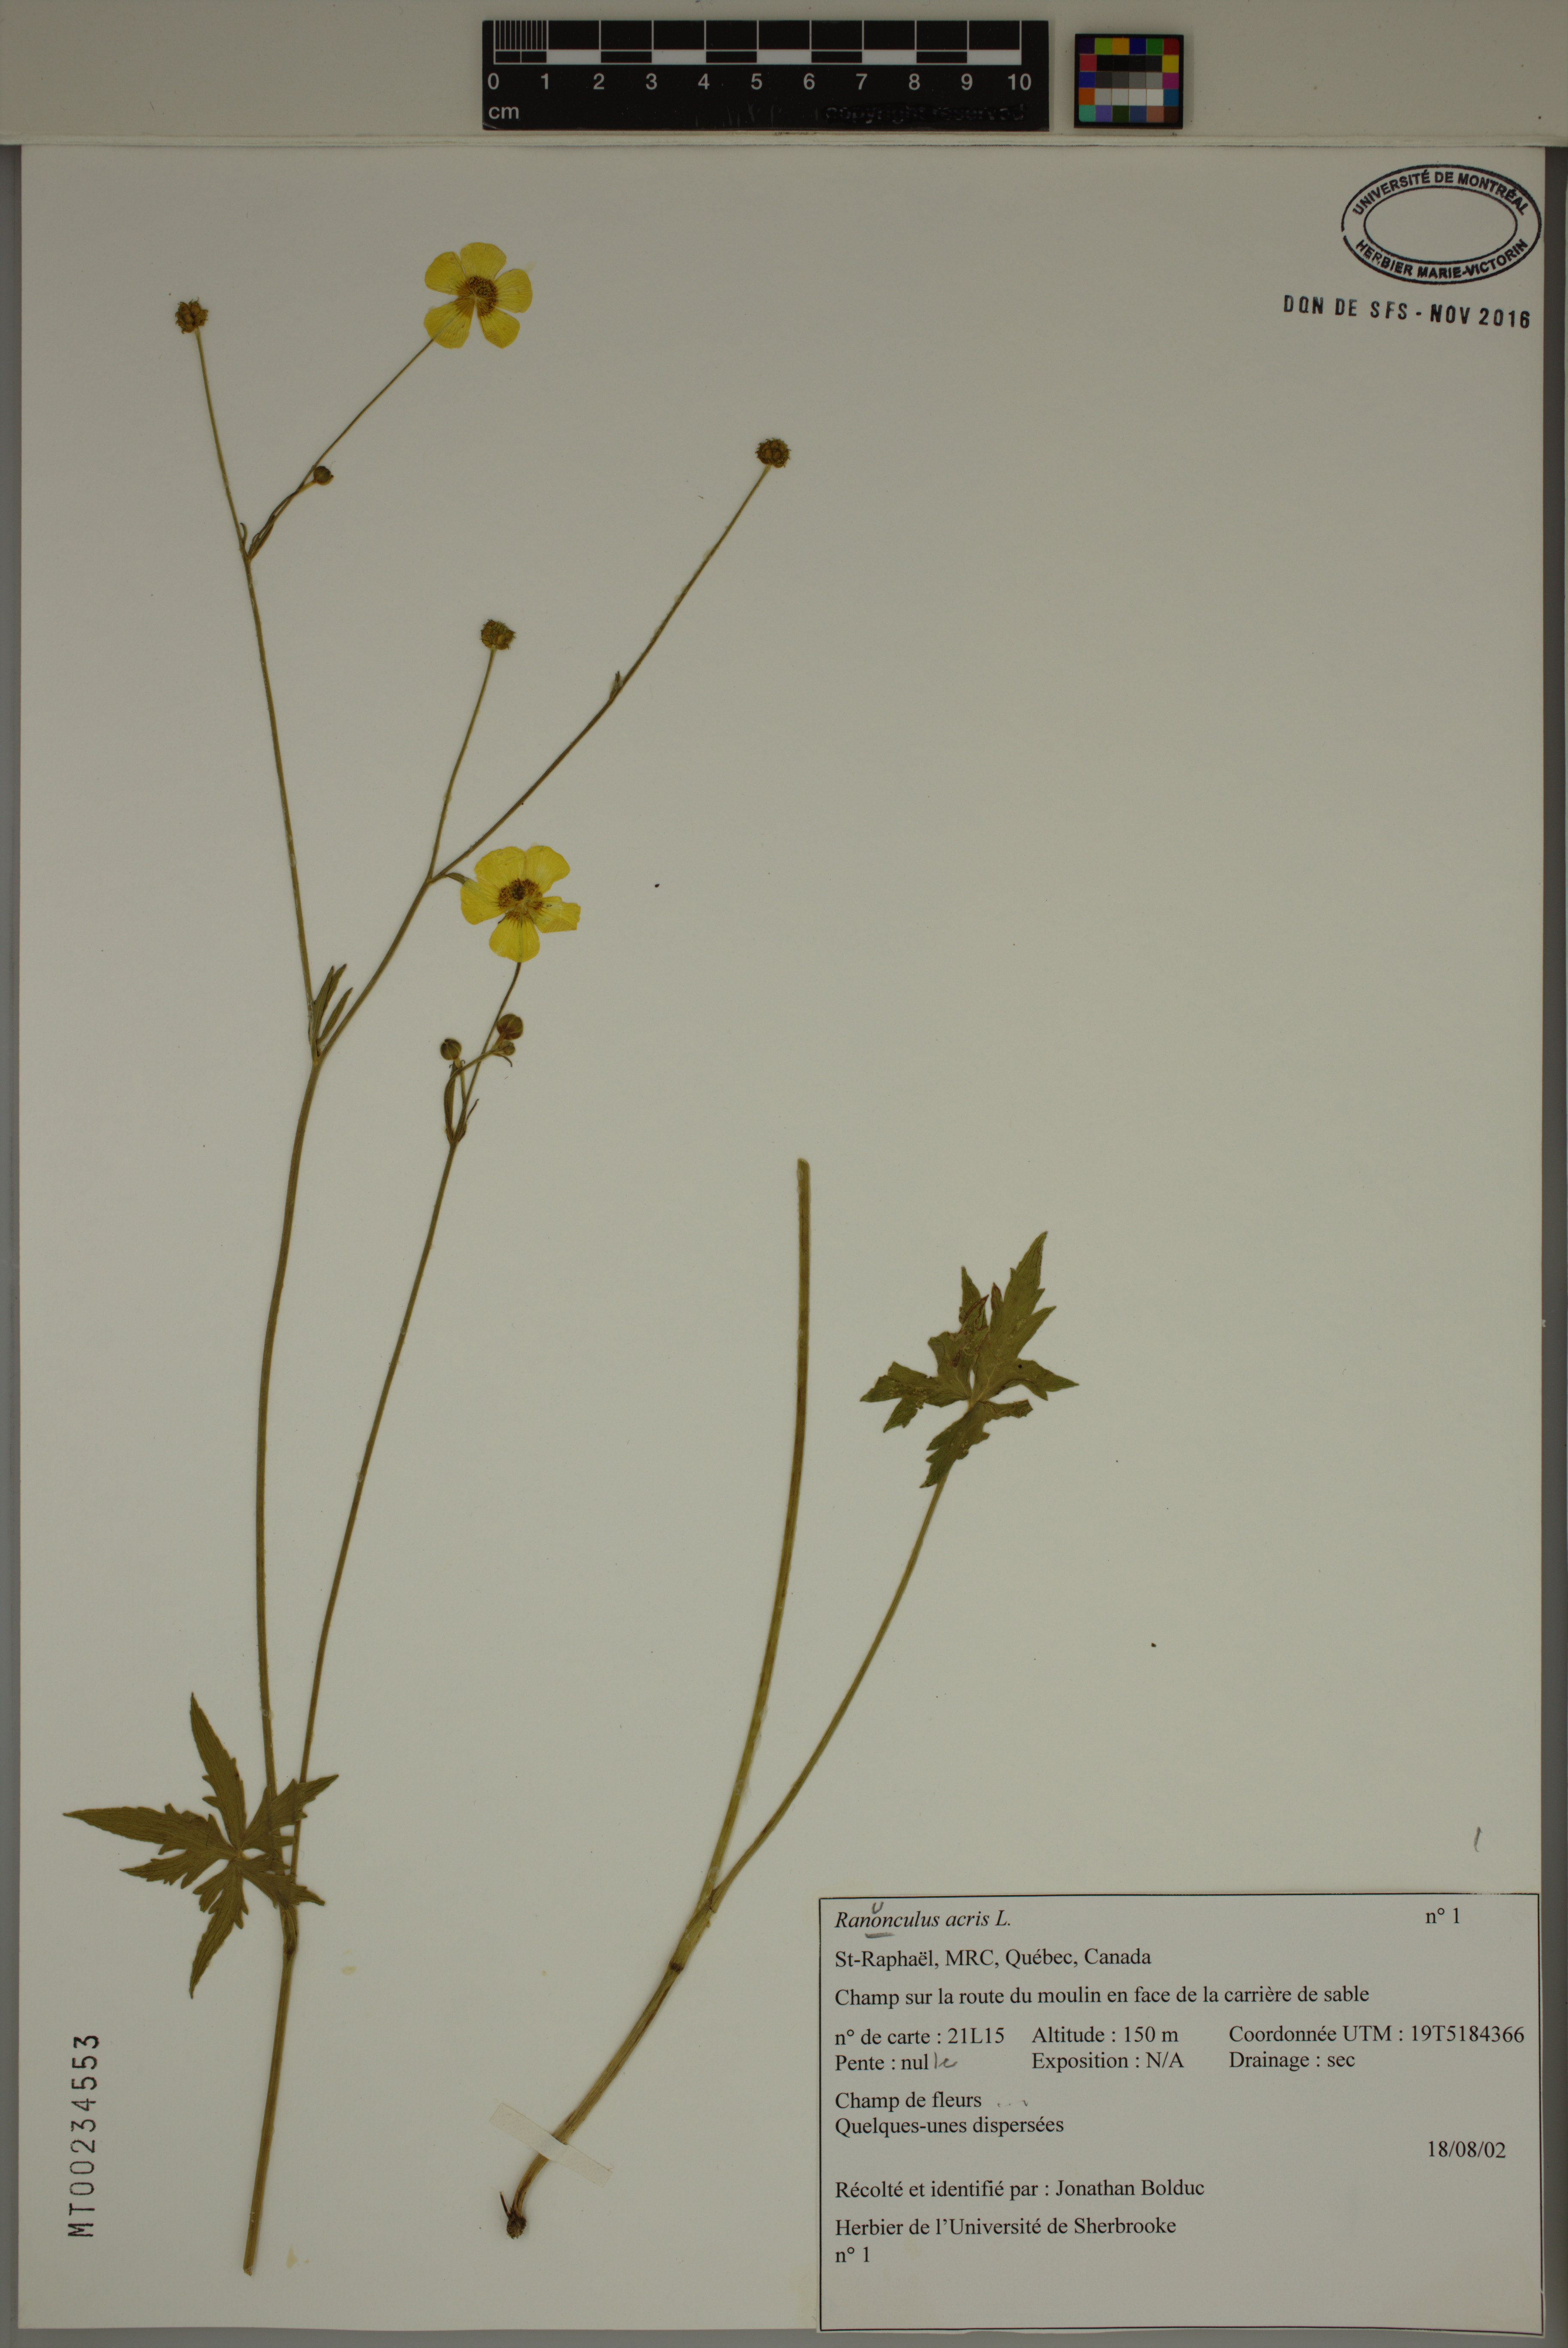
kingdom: Plantae
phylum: Tracheophyta
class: Magnoliopsida
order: Ranunculales
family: Ranunculaceae
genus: Ranunculus
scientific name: Ranunculus acris
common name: Meadow buttercup
